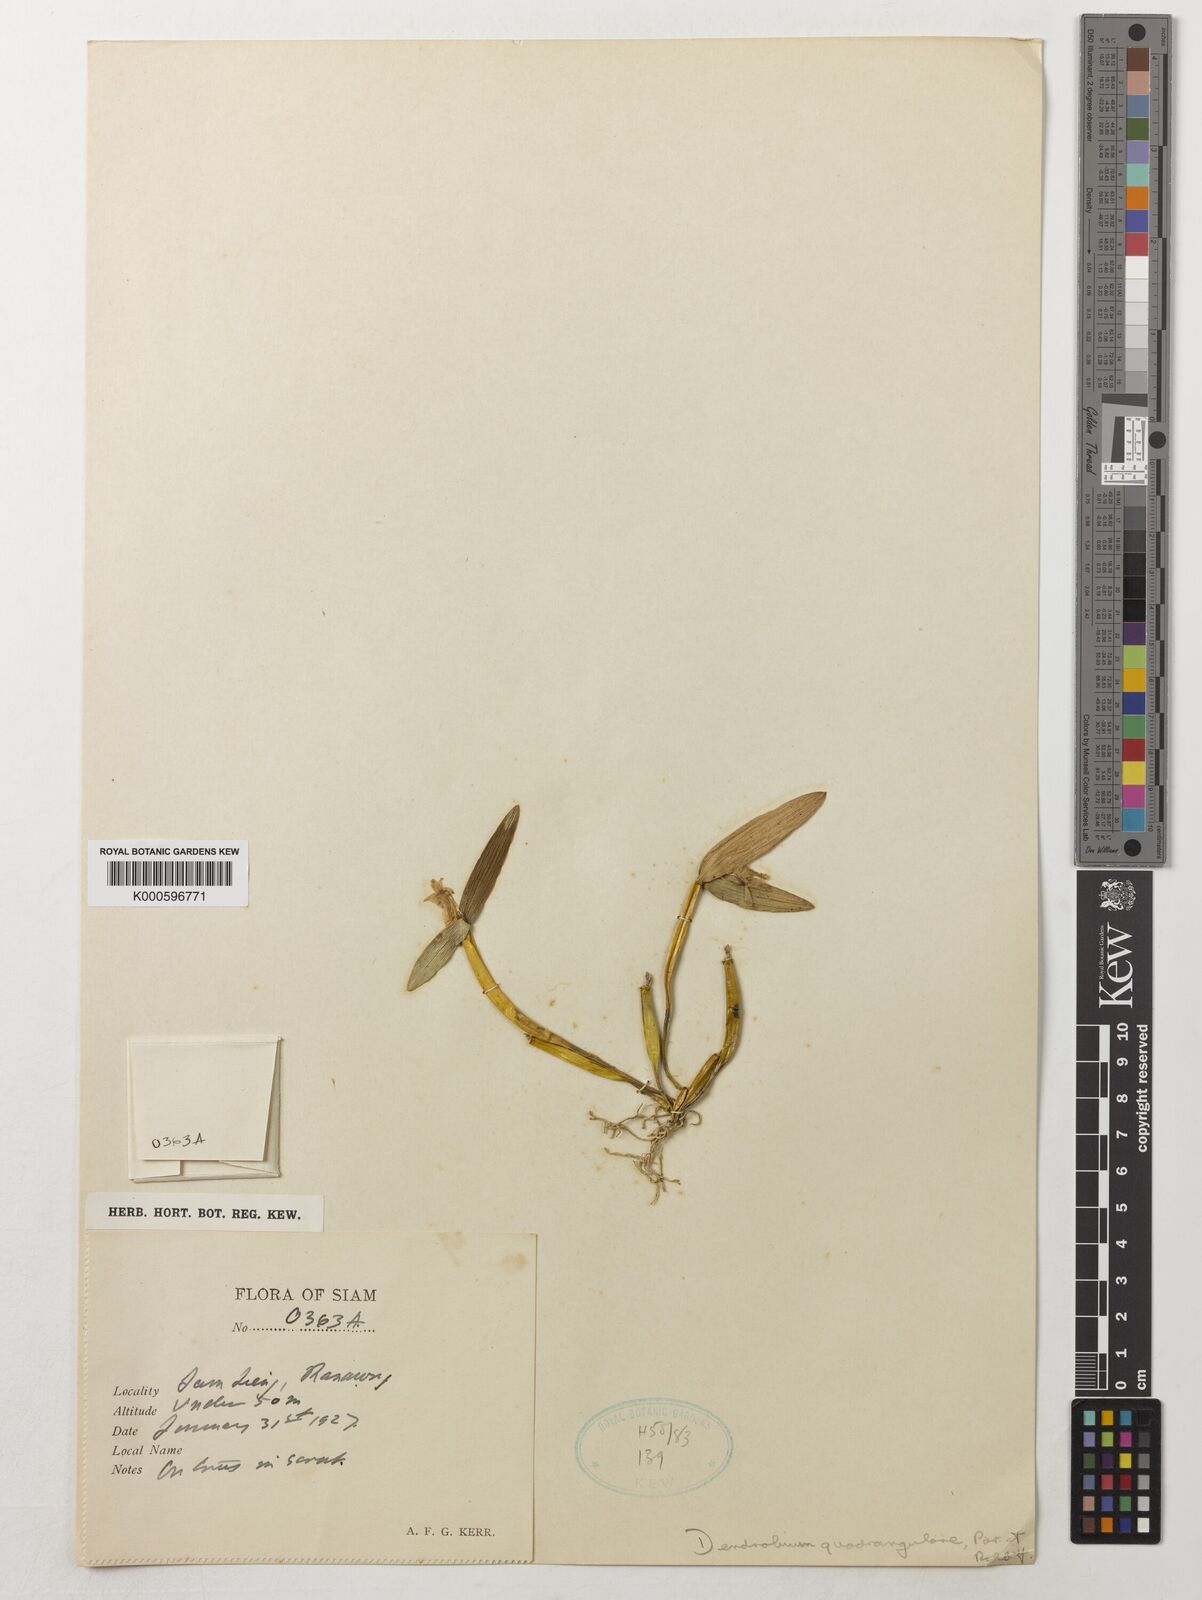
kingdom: Plantae
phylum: Tracheophyta
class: Liliopsida
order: Asparagales
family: Orchidaceae
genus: Dendrobium
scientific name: Dendrobium hymenanthum
